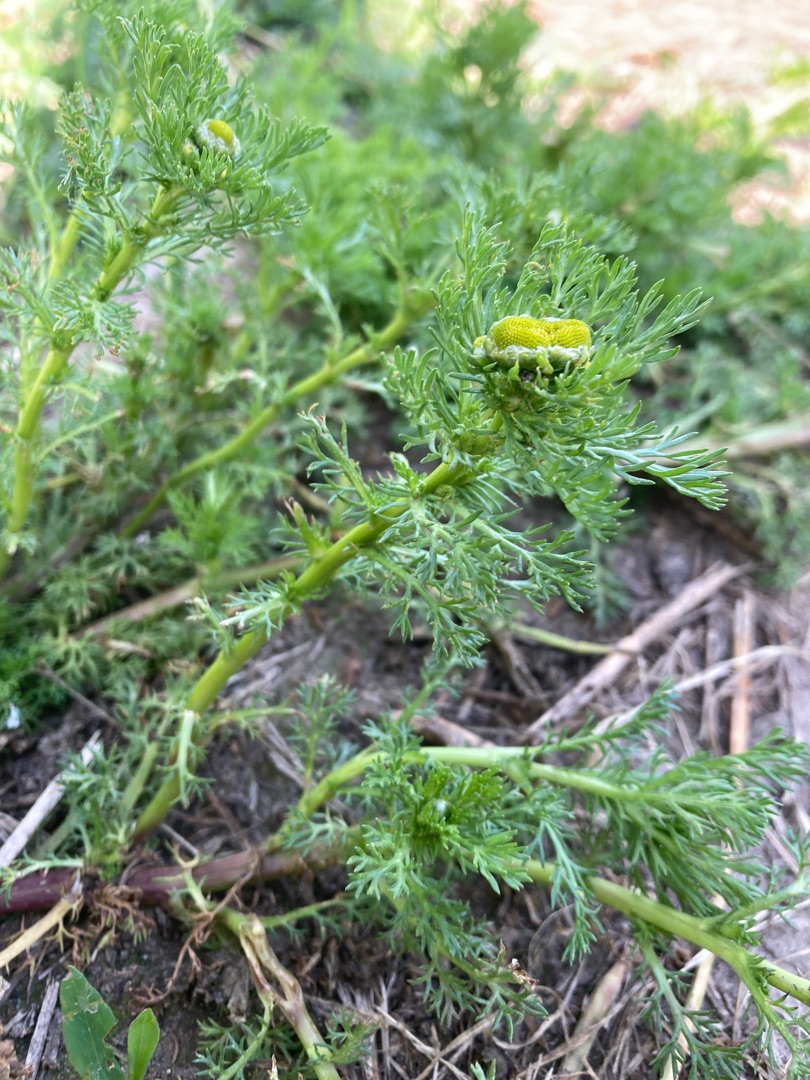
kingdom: Plantae
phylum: Tracheophyta
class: Magnoliopsida
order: Asterales
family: Asteraceae
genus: Matricaria
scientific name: Matricaria discoidea
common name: Skive-kamille
